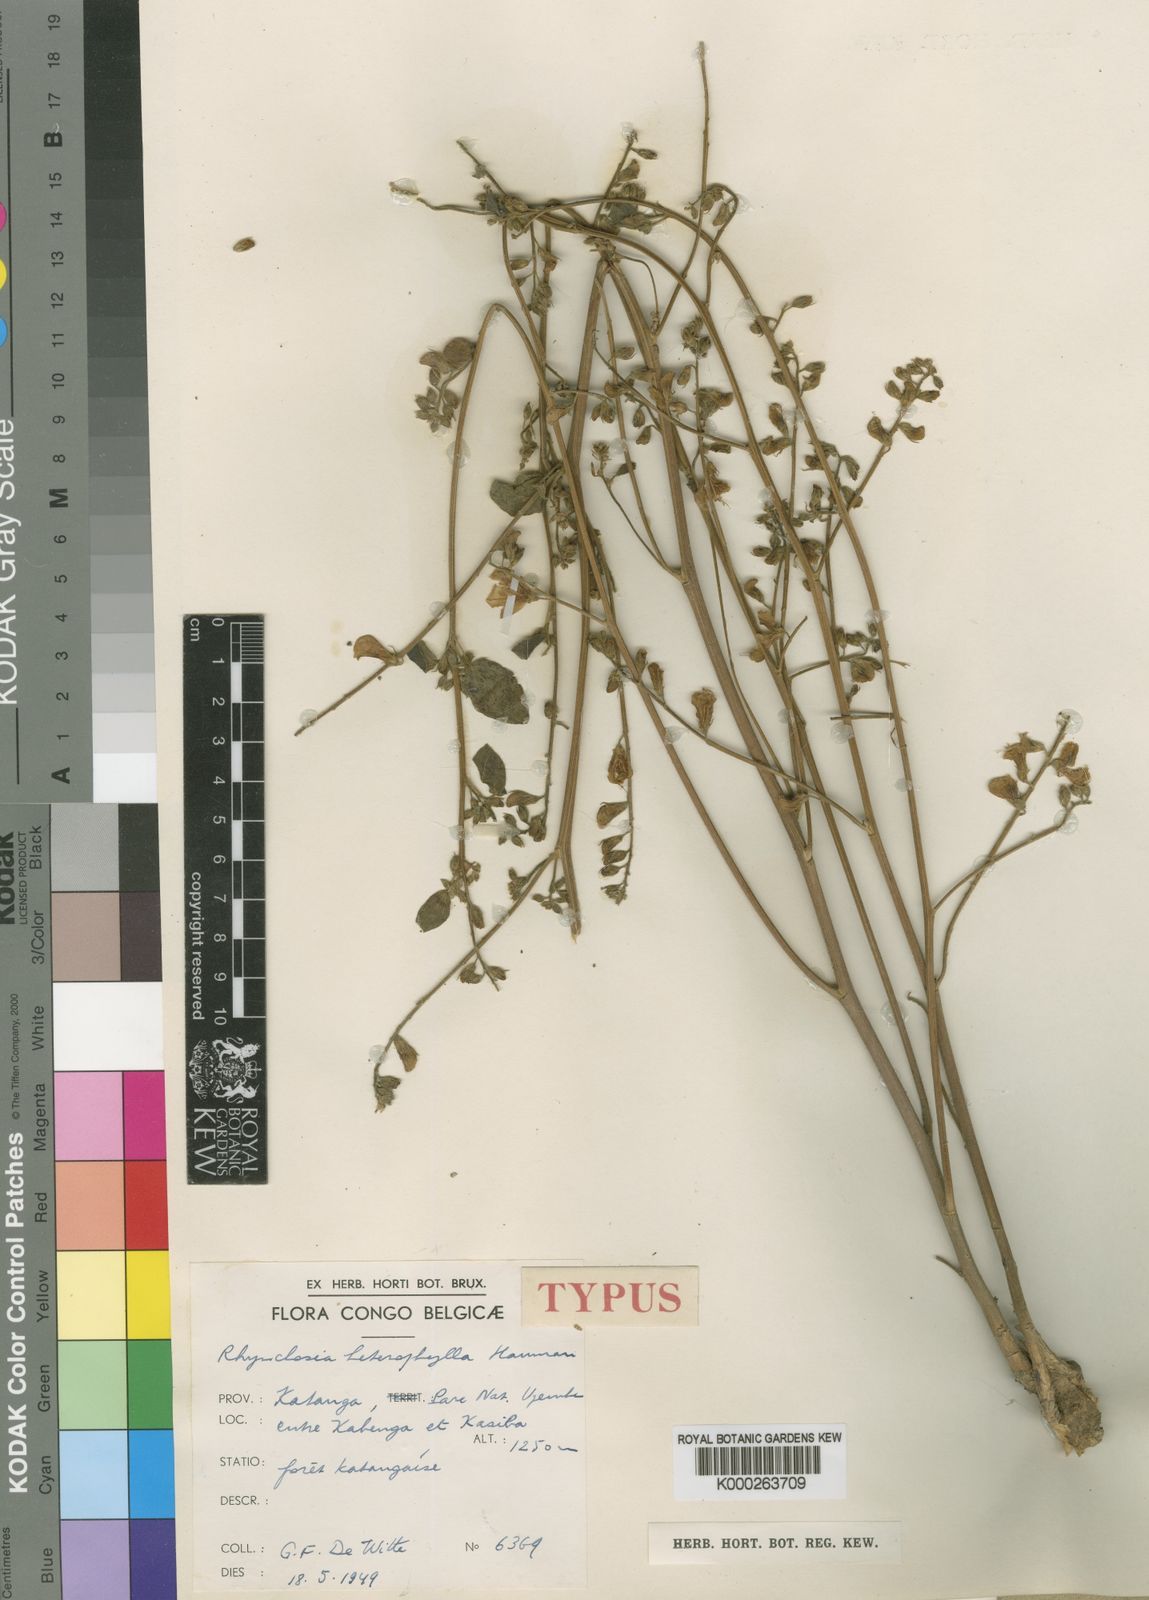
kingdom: Plantae
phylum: Tracheophyta
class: Magnoliopsida
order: Fabales
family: Fabaceae
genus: Rhynchosia
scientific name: Rhynchosia heterophylla
